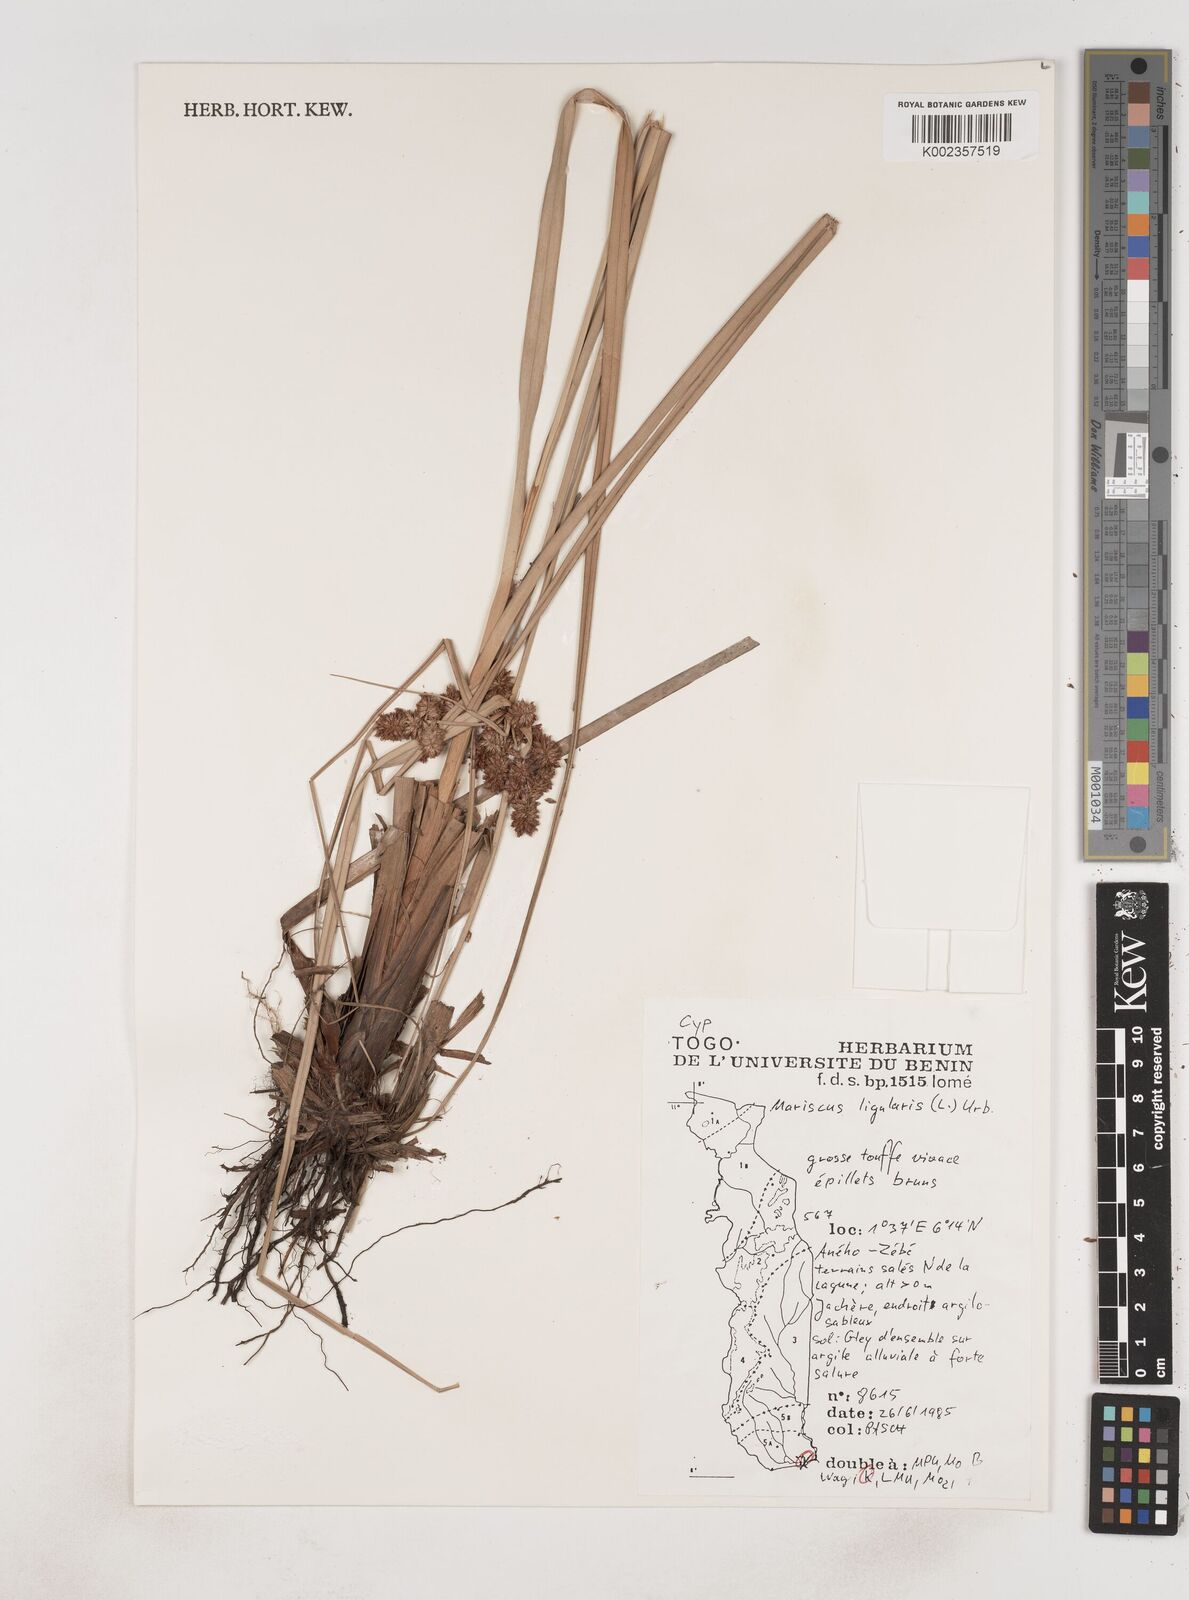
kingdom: Plantae
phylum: Tracheophyta
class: Liliopsida
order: Poales
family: Cyperaceae
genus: Cyperus
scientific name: Cyperus ligularis
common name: Swamp flat sedge
